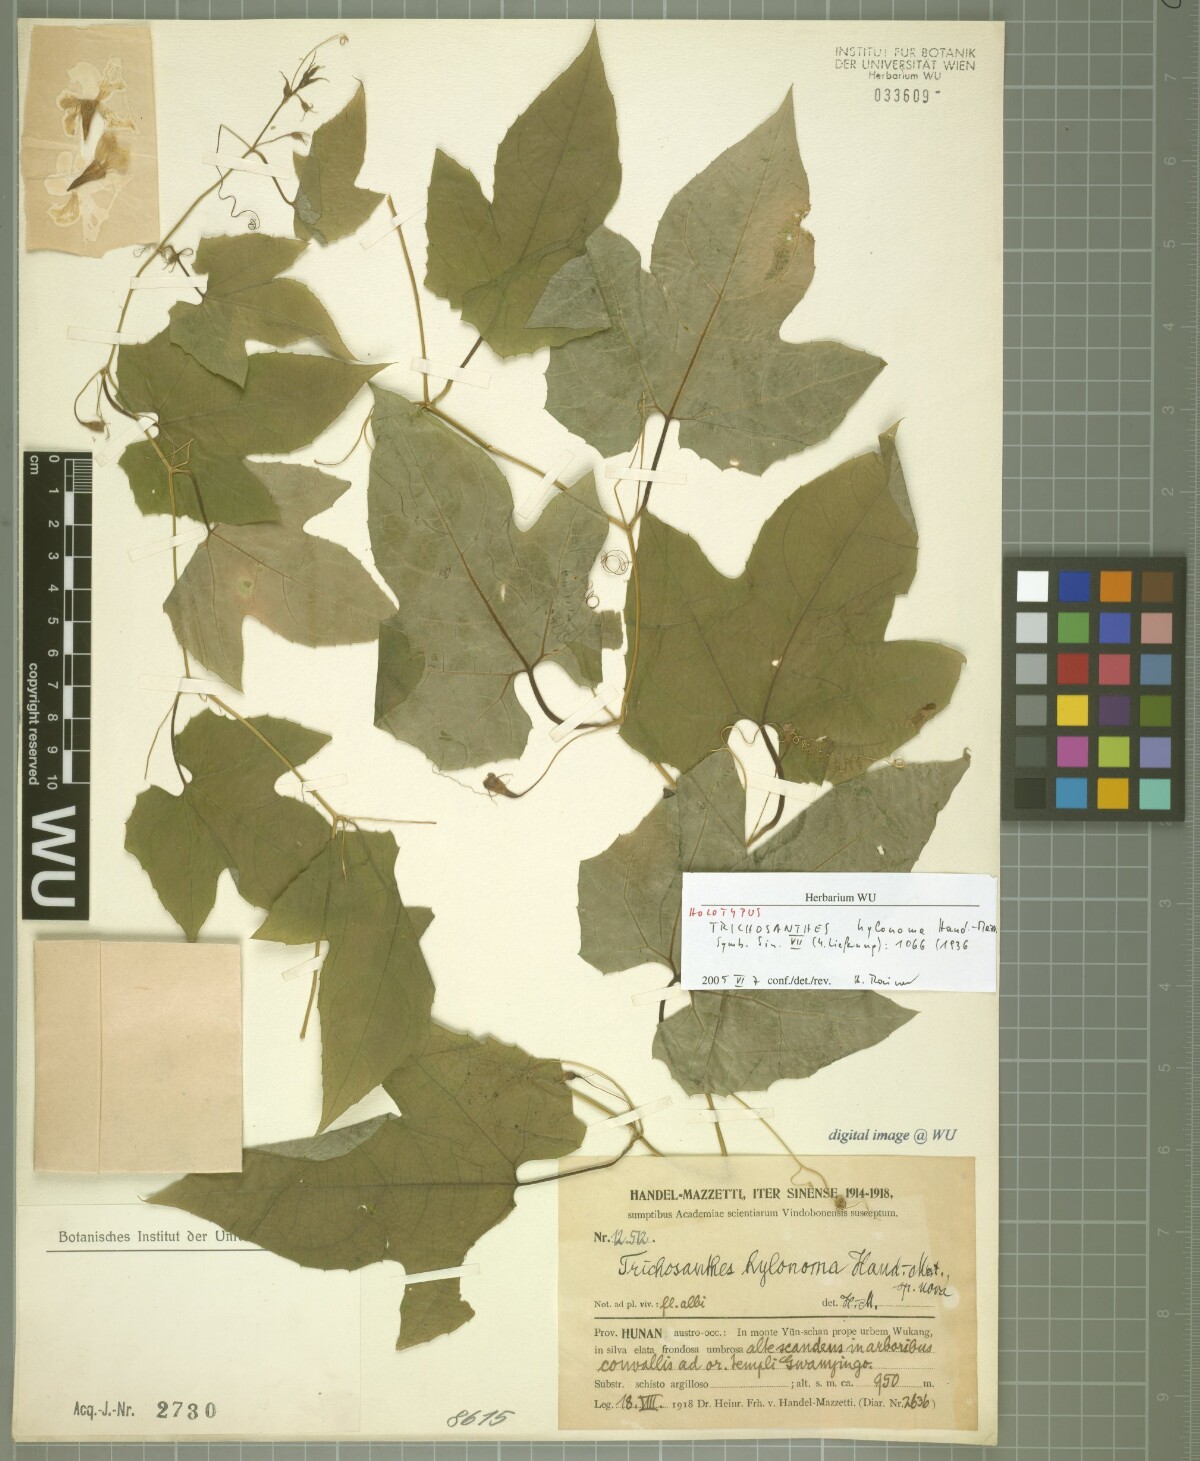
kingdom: Plantae
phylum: Tracheophyta
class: Magnoliopsida
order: Cucurbitales
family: Cucurbitaceae
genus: Trichosanthes
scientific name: Trichosanthes hylonoma
